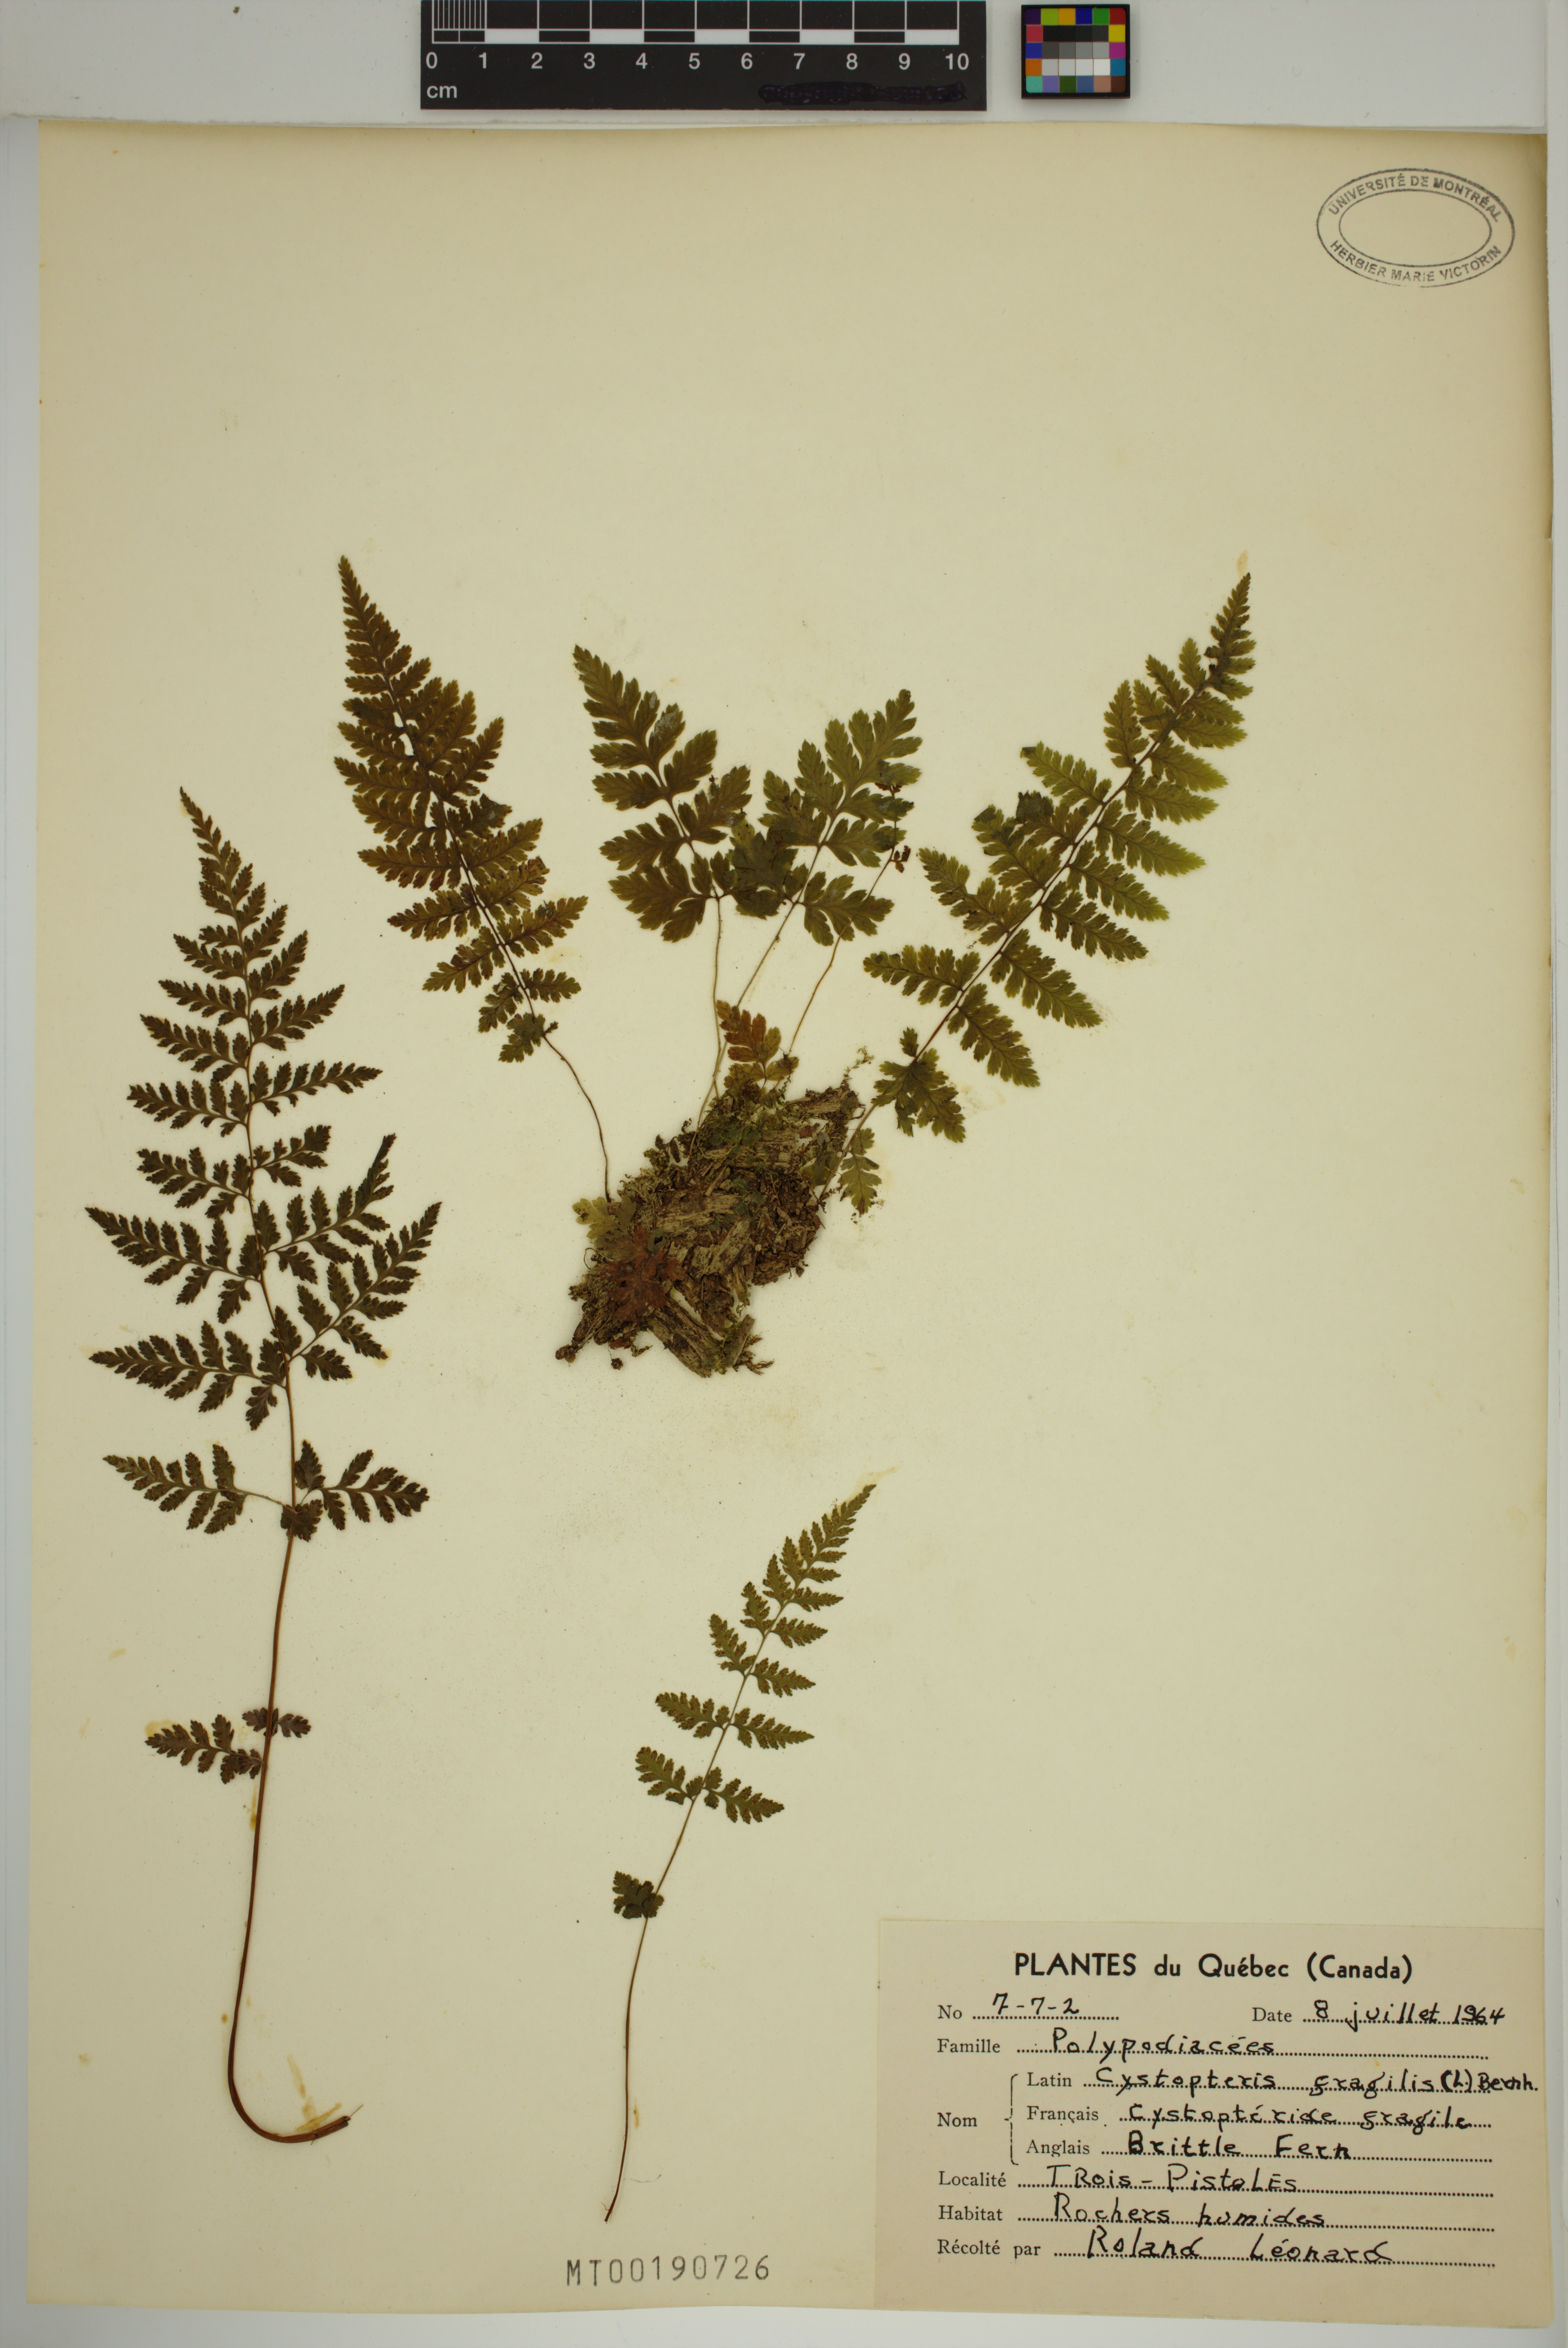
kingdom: Plantae
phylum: Tracheophyta
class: Polypodiopsida
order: Polypodiales
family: Cystopteridaceae
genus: Cystopteris
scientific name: Cystopteris fragilis
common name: Brittle bladder fern
